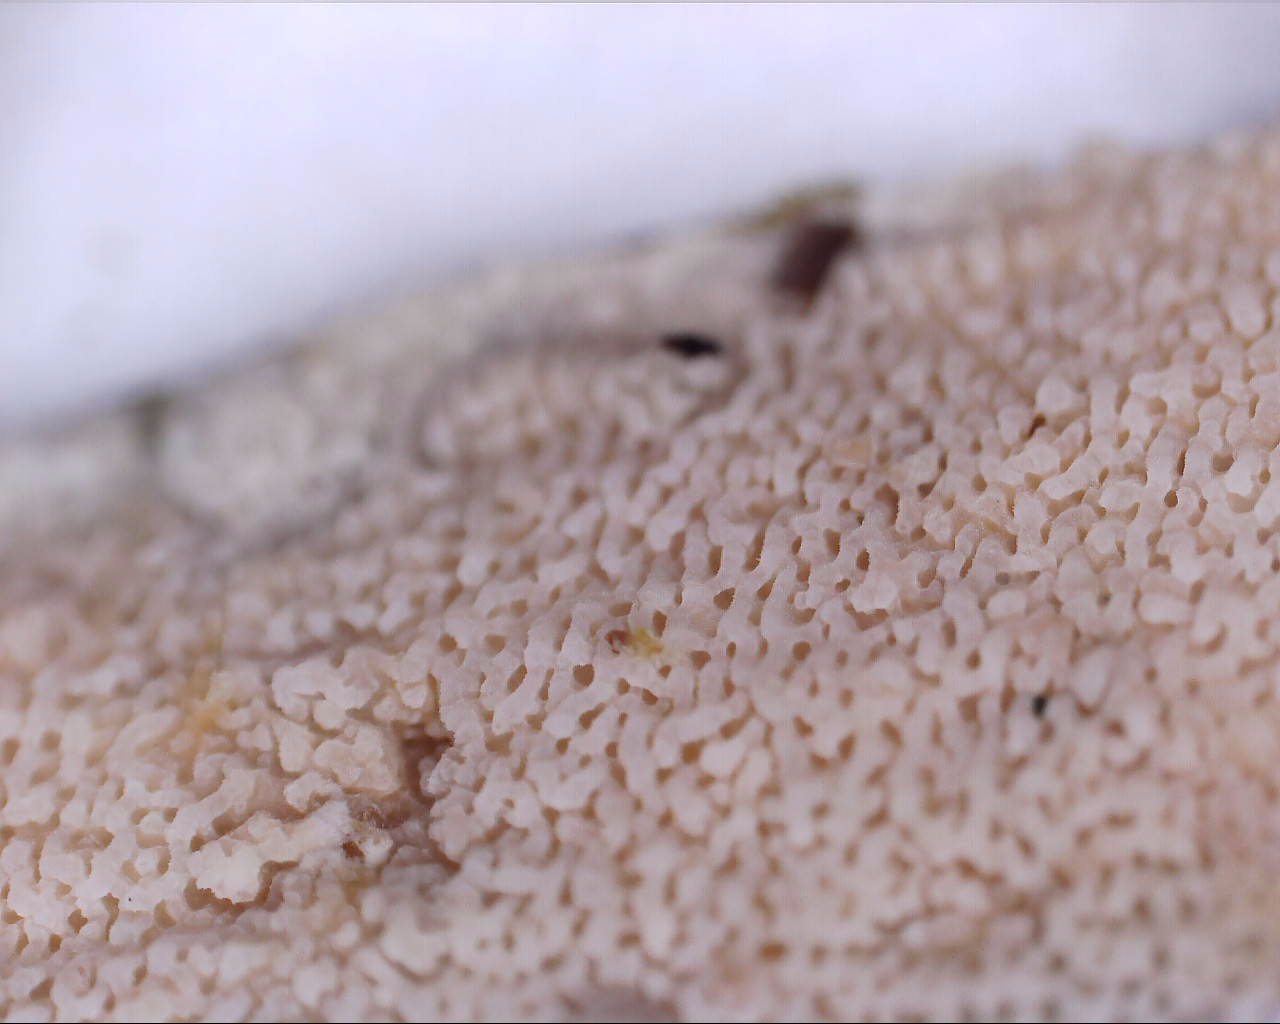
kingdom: Fungi
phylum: Basidiomycota
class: Agaricomycetes
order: Polyporales
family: Meruliaceae
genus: Phlebia
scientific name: Phlebia rufa
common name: ege-åresvamp
